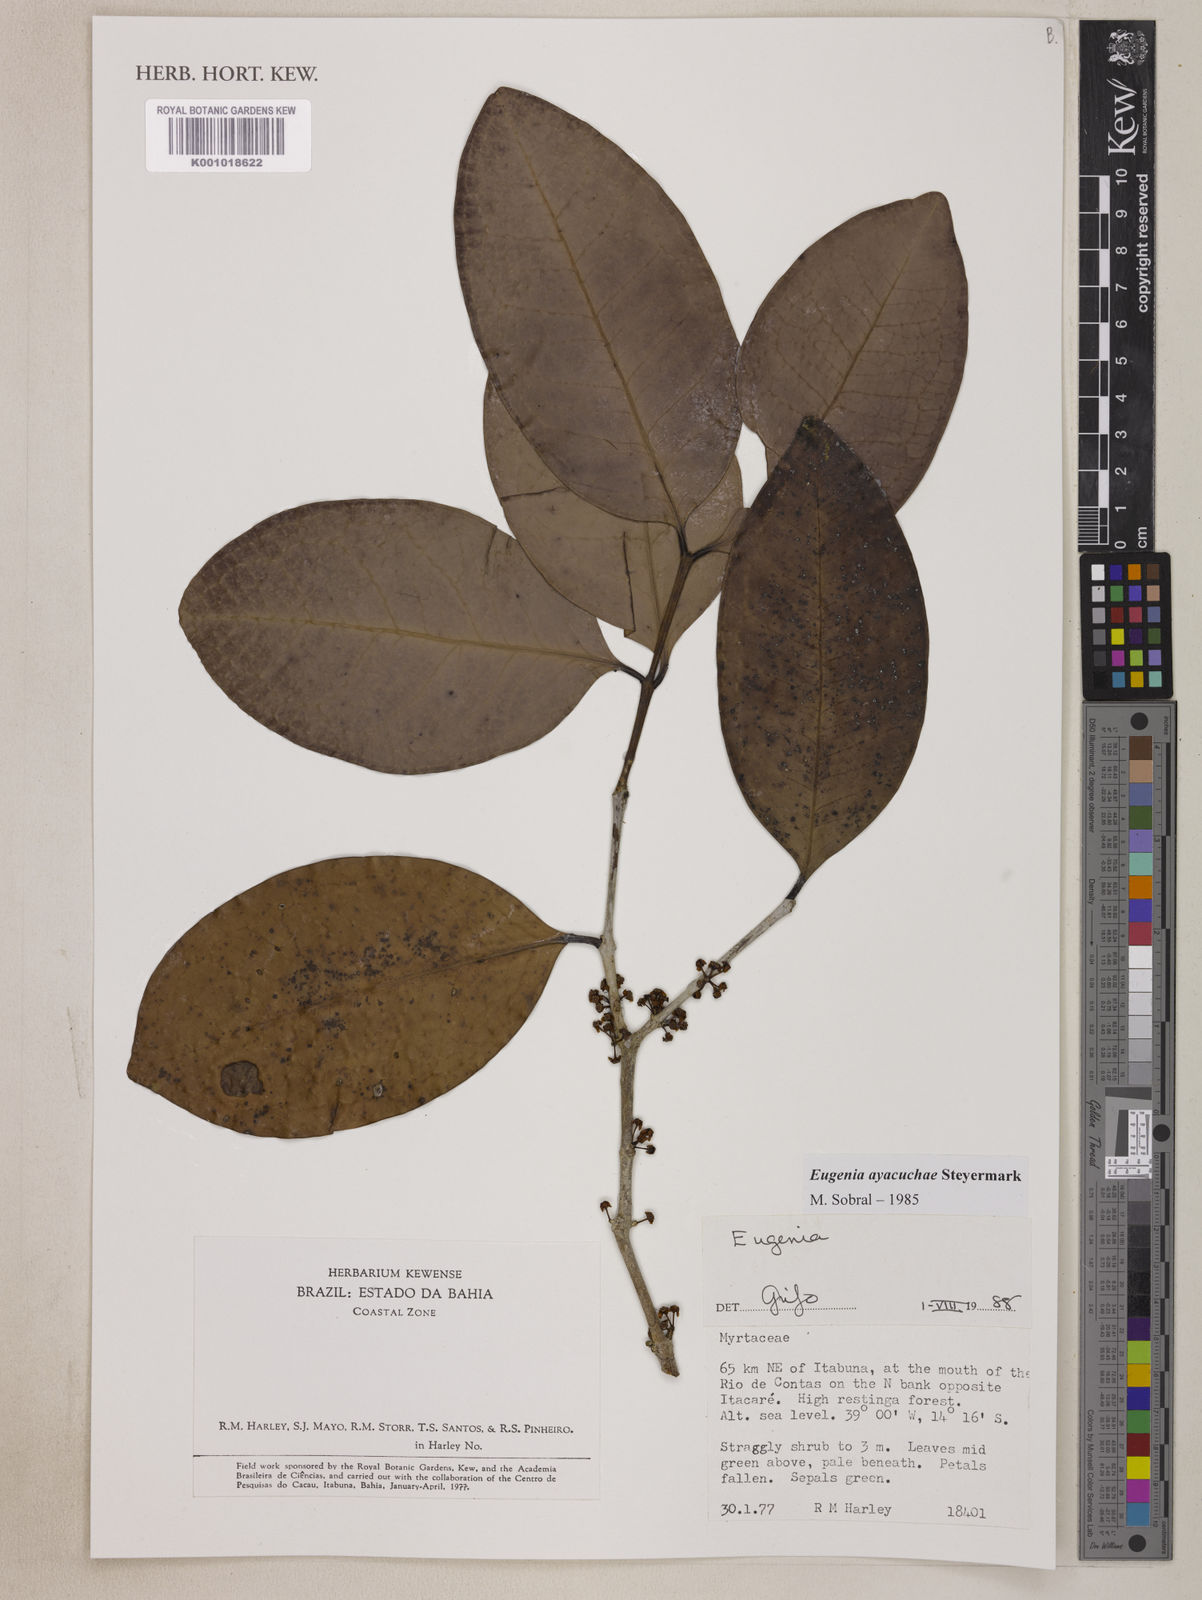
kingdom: Plantae
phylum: Tracheophyta
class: Magnoliopsida
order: Myrtales
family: Myrtaceae
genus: Eugenia
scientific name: Eugenia ayacuchae
